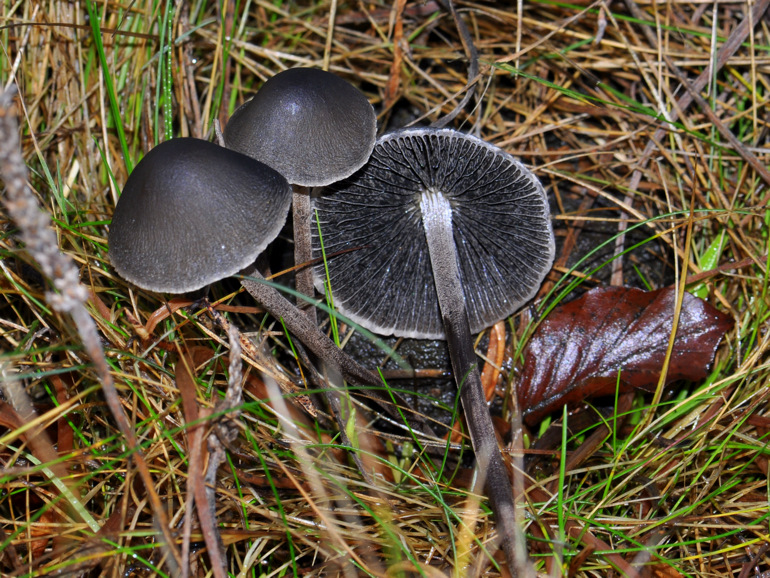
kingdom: Fungi
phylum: Basidiomycota
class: Agaricomycetes
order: Agaricales
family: Bolbitiaceae
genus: Panaeolus
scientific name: Panaeolus acuminatus
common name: høj glanshat
